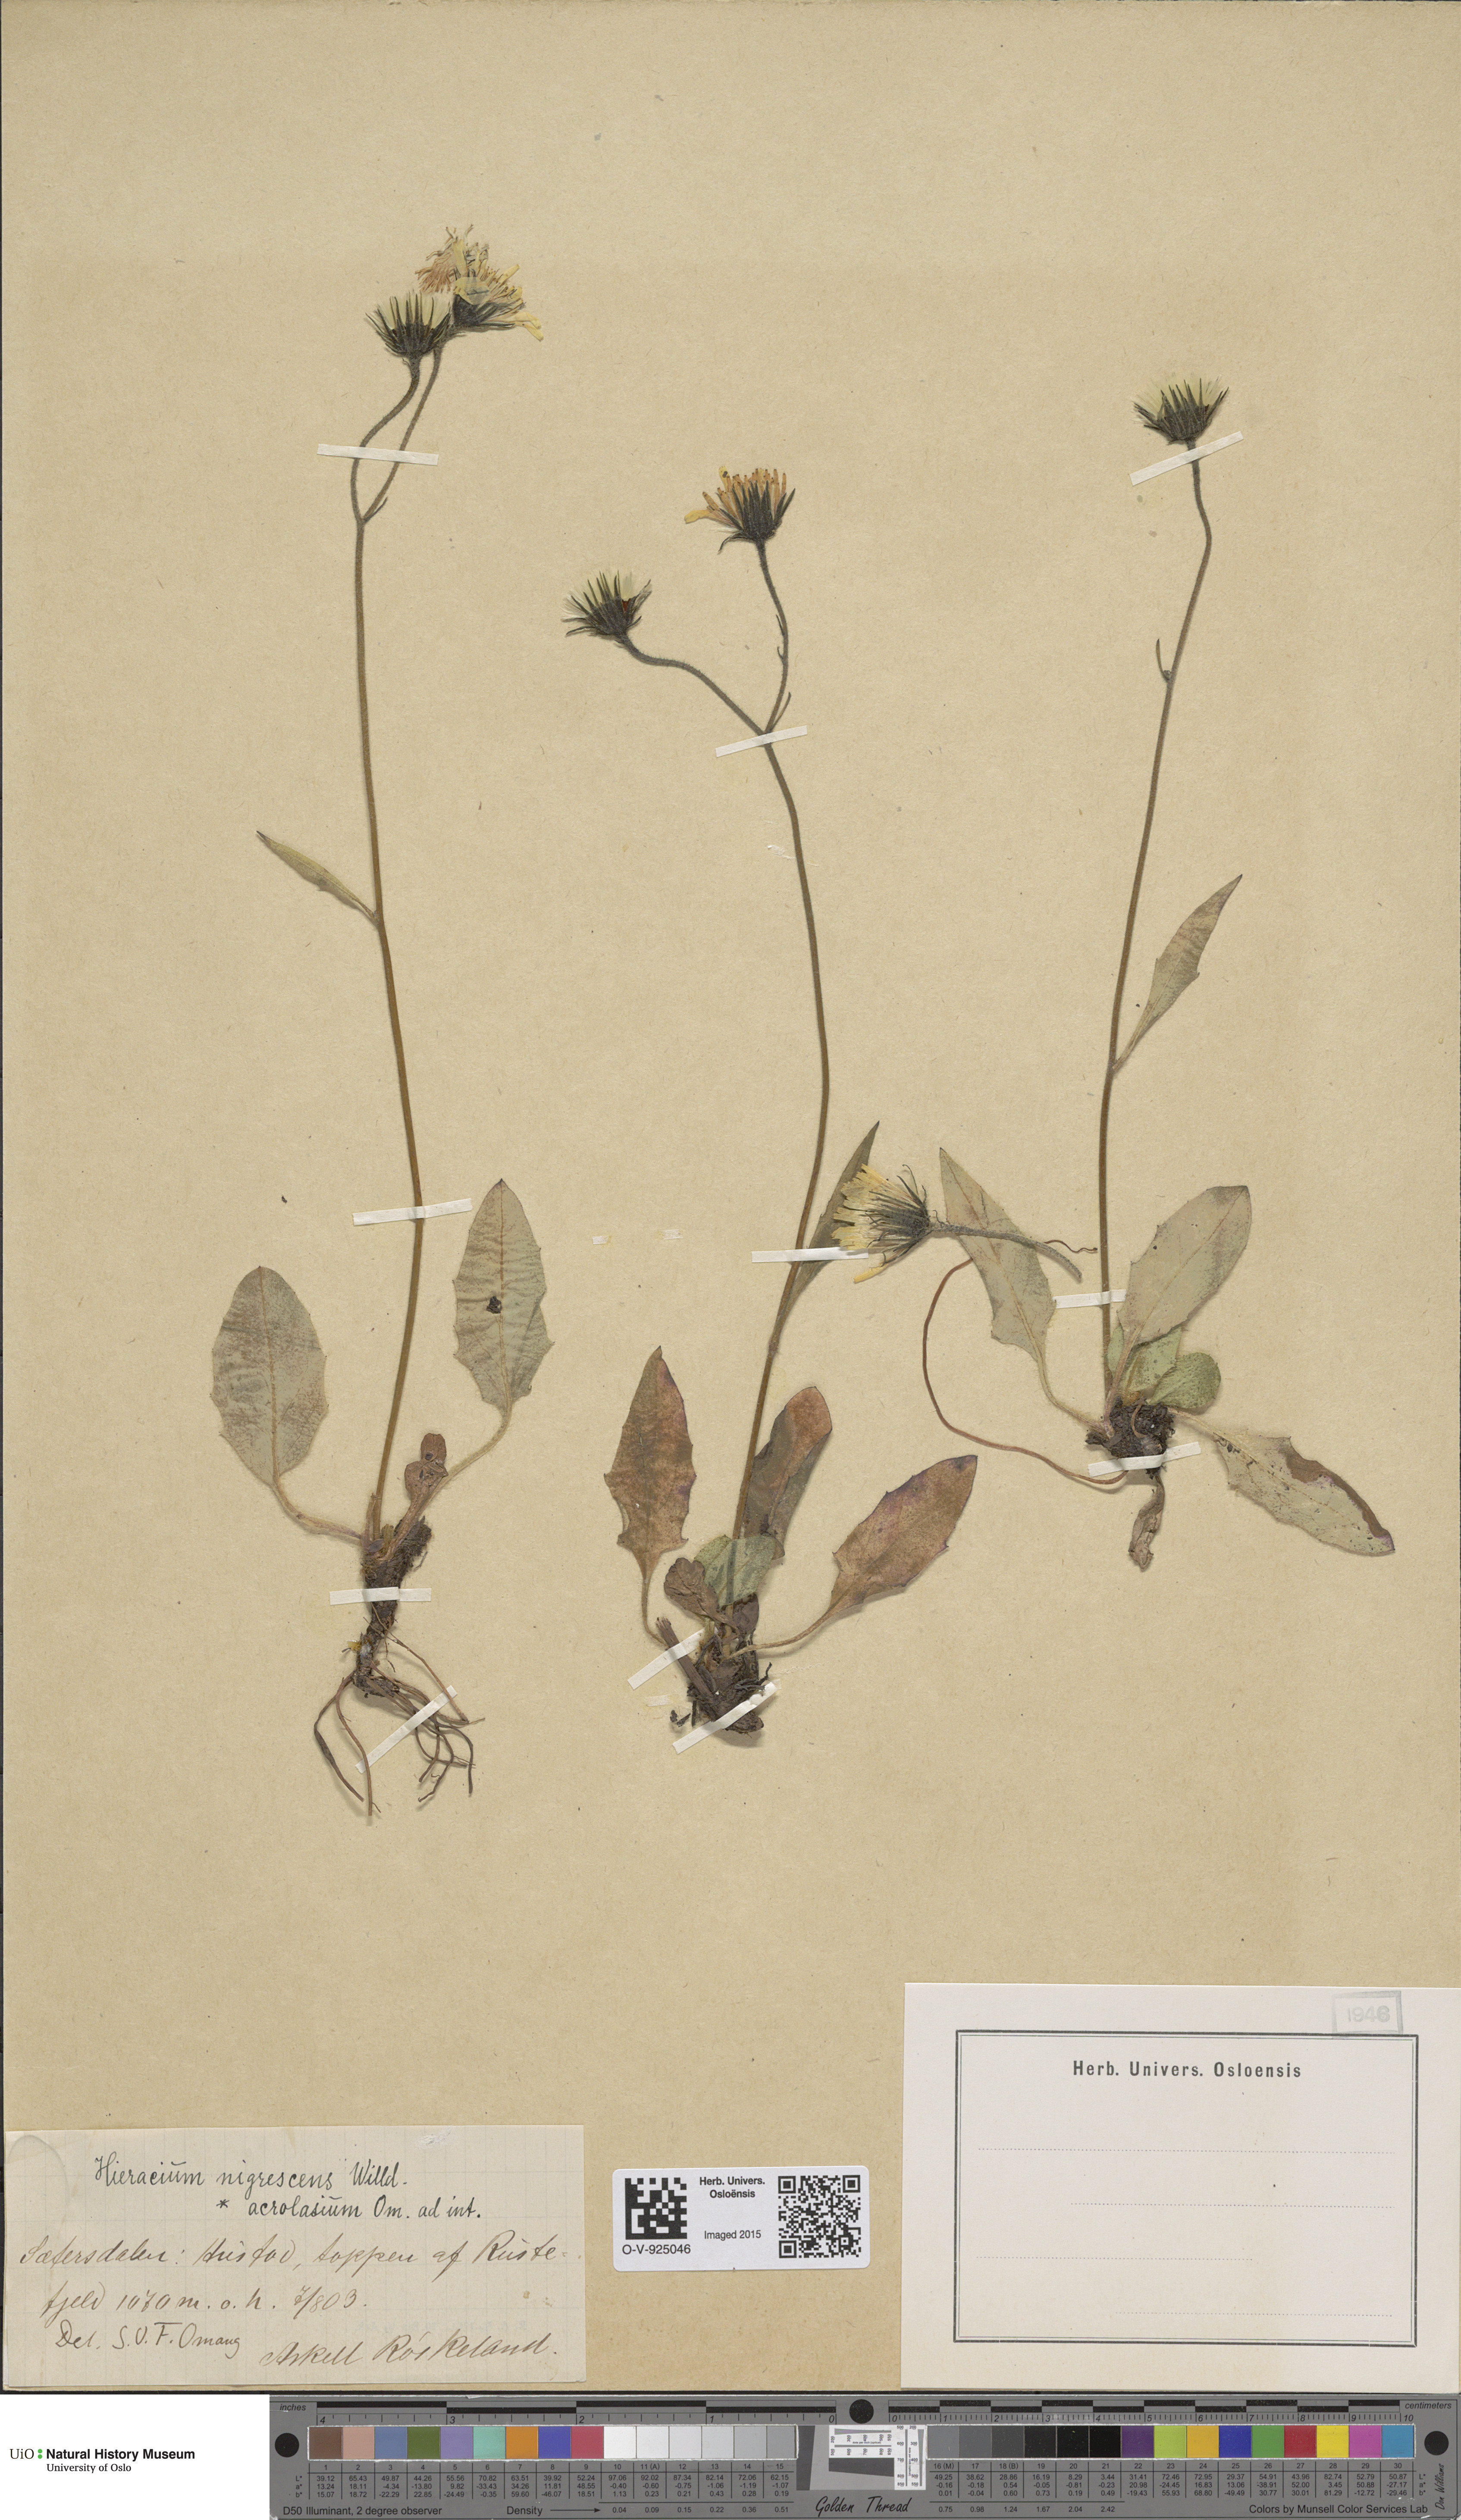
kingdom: Plantae
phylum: Tracheophyta
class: Magnoliopsida
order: Asterales
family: Asteraceae
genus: Hieracium
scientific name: Hieracium nigrescens
